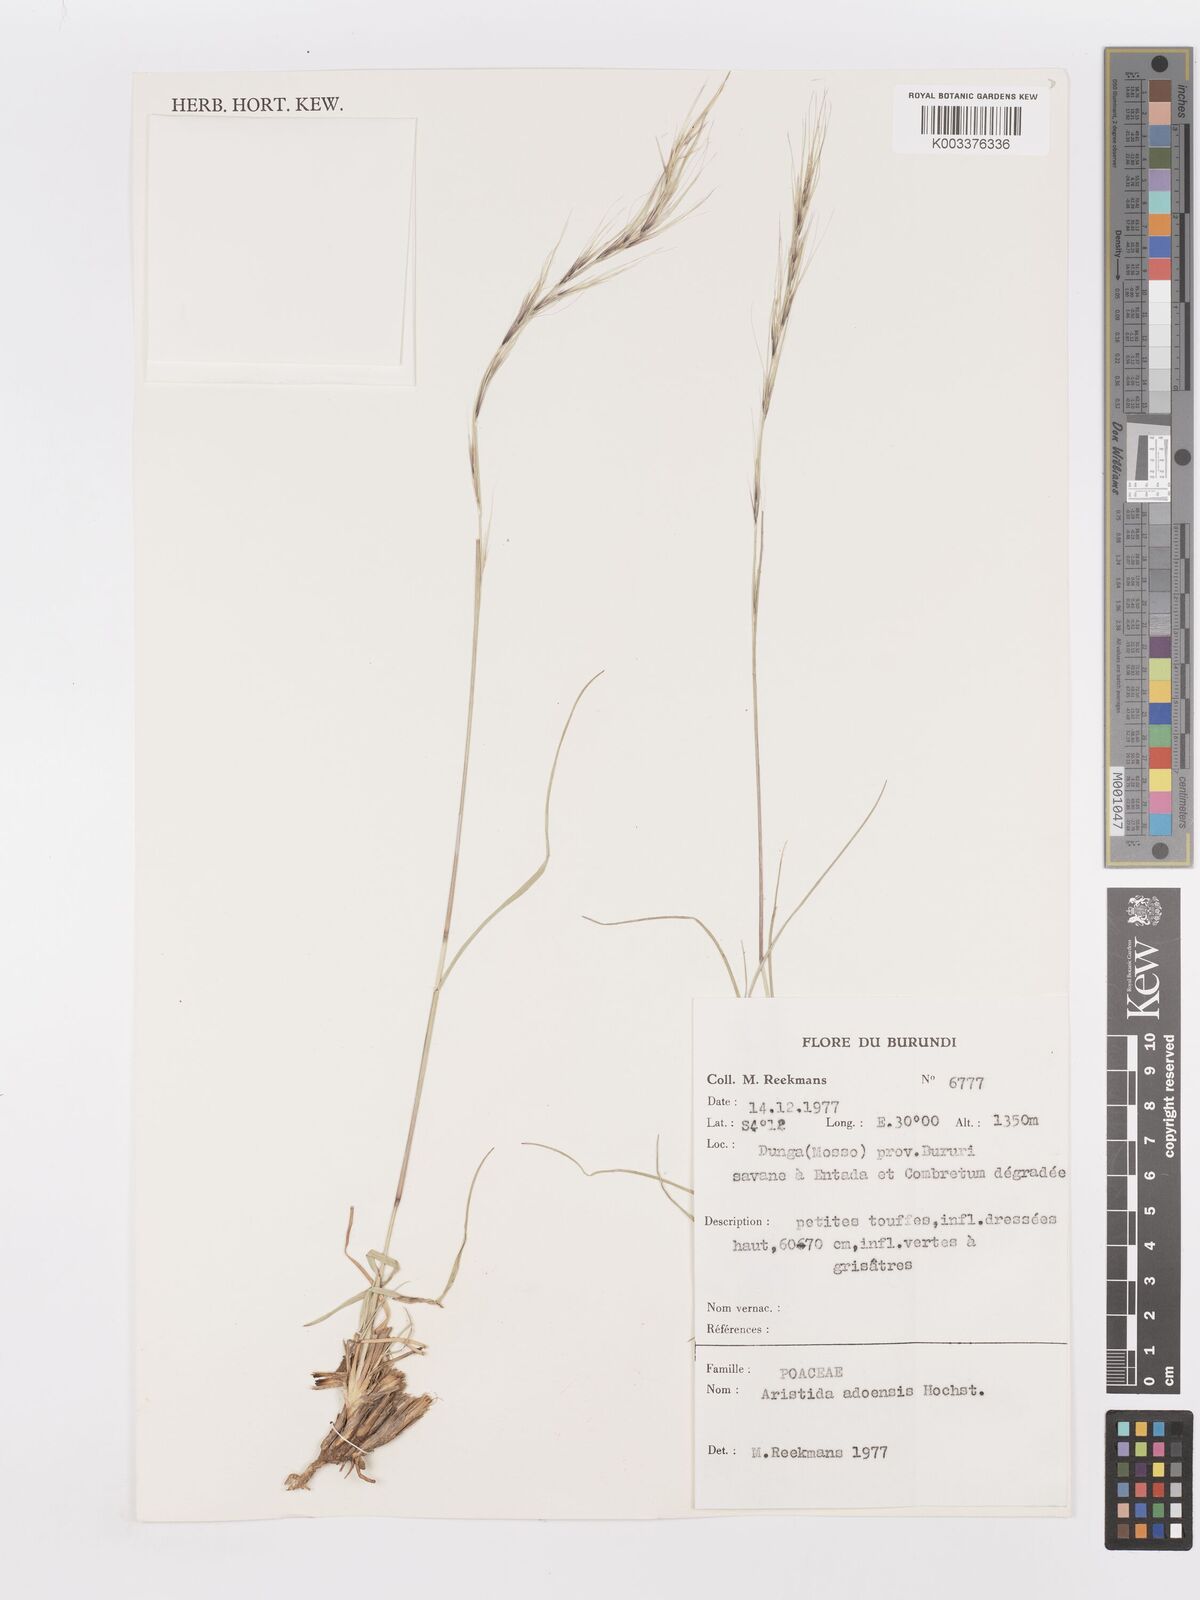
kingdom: Plantae
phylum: Tracheophyta
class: Liliopsida
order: Poales
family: Poaceae
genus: Aristida
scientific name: Aristida adoensis
